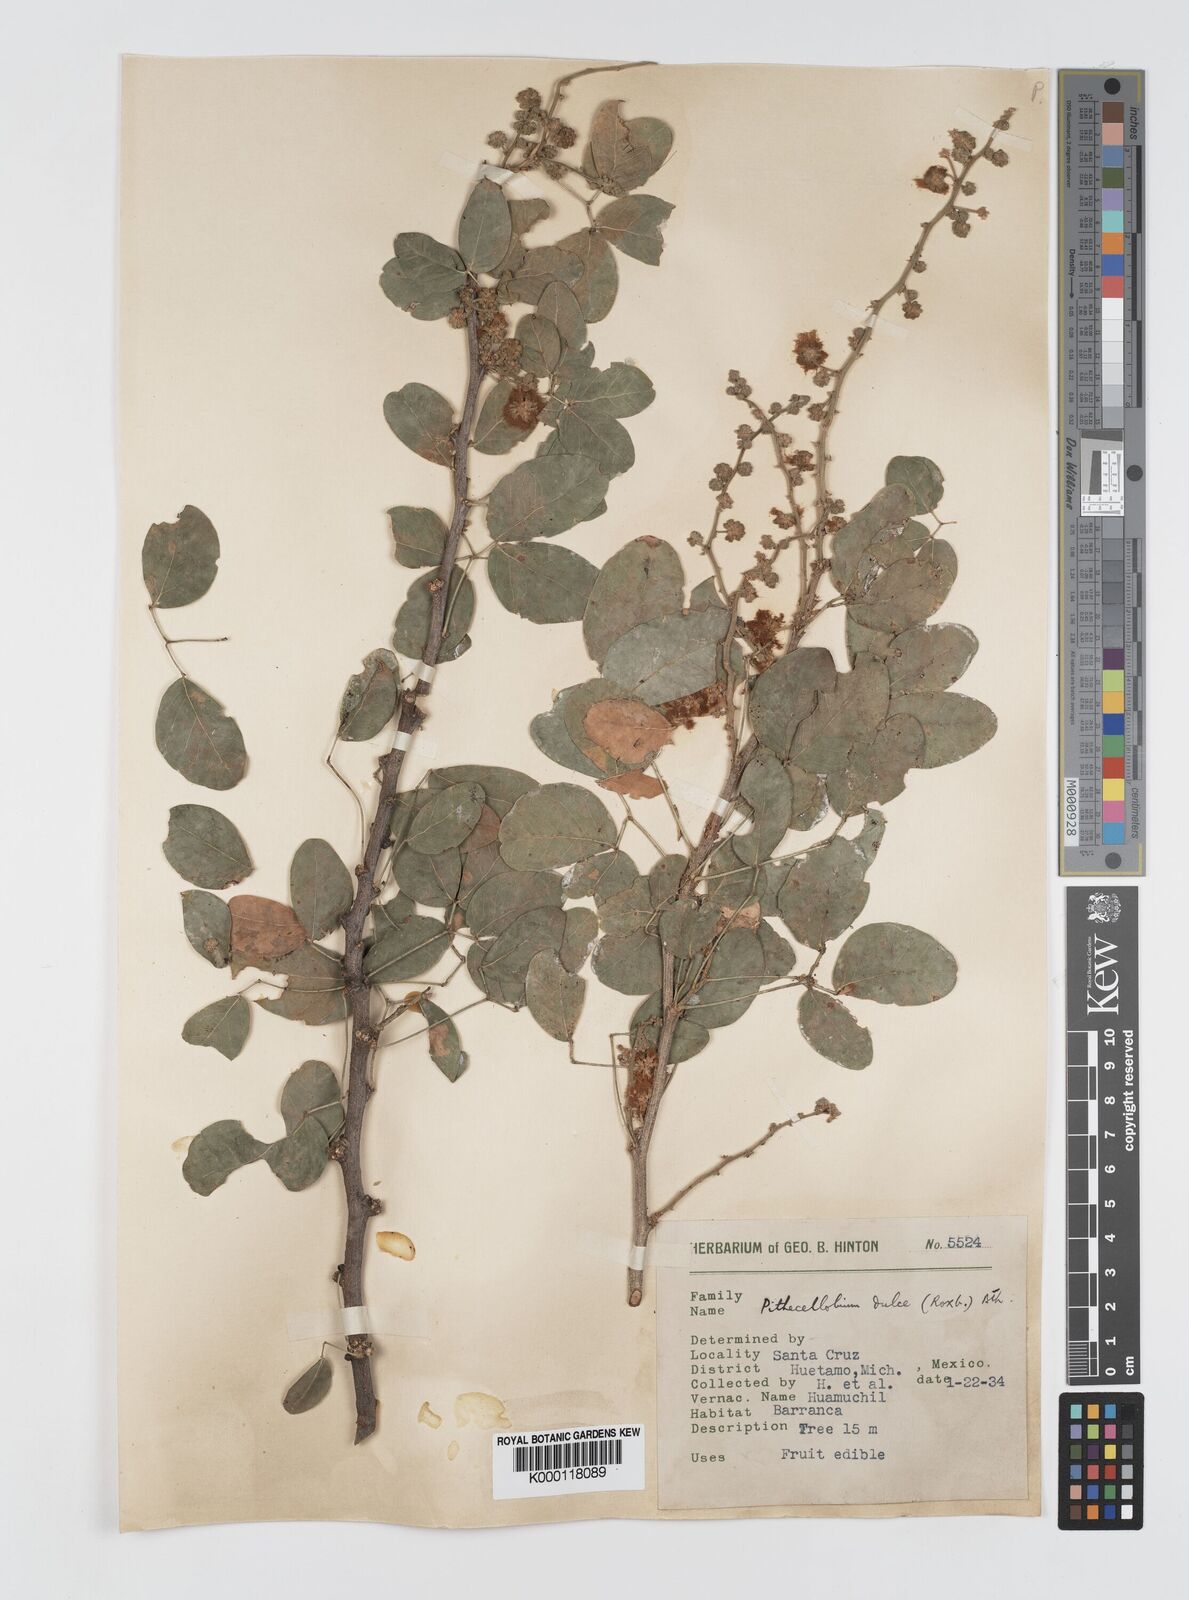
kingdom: Plantae
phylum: Tracheophyta
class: Magnoliopsida
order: Fabales
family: Fabaceae
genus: Pithecellobium
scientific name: Pithecellobium dulce
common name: Monkeypod
